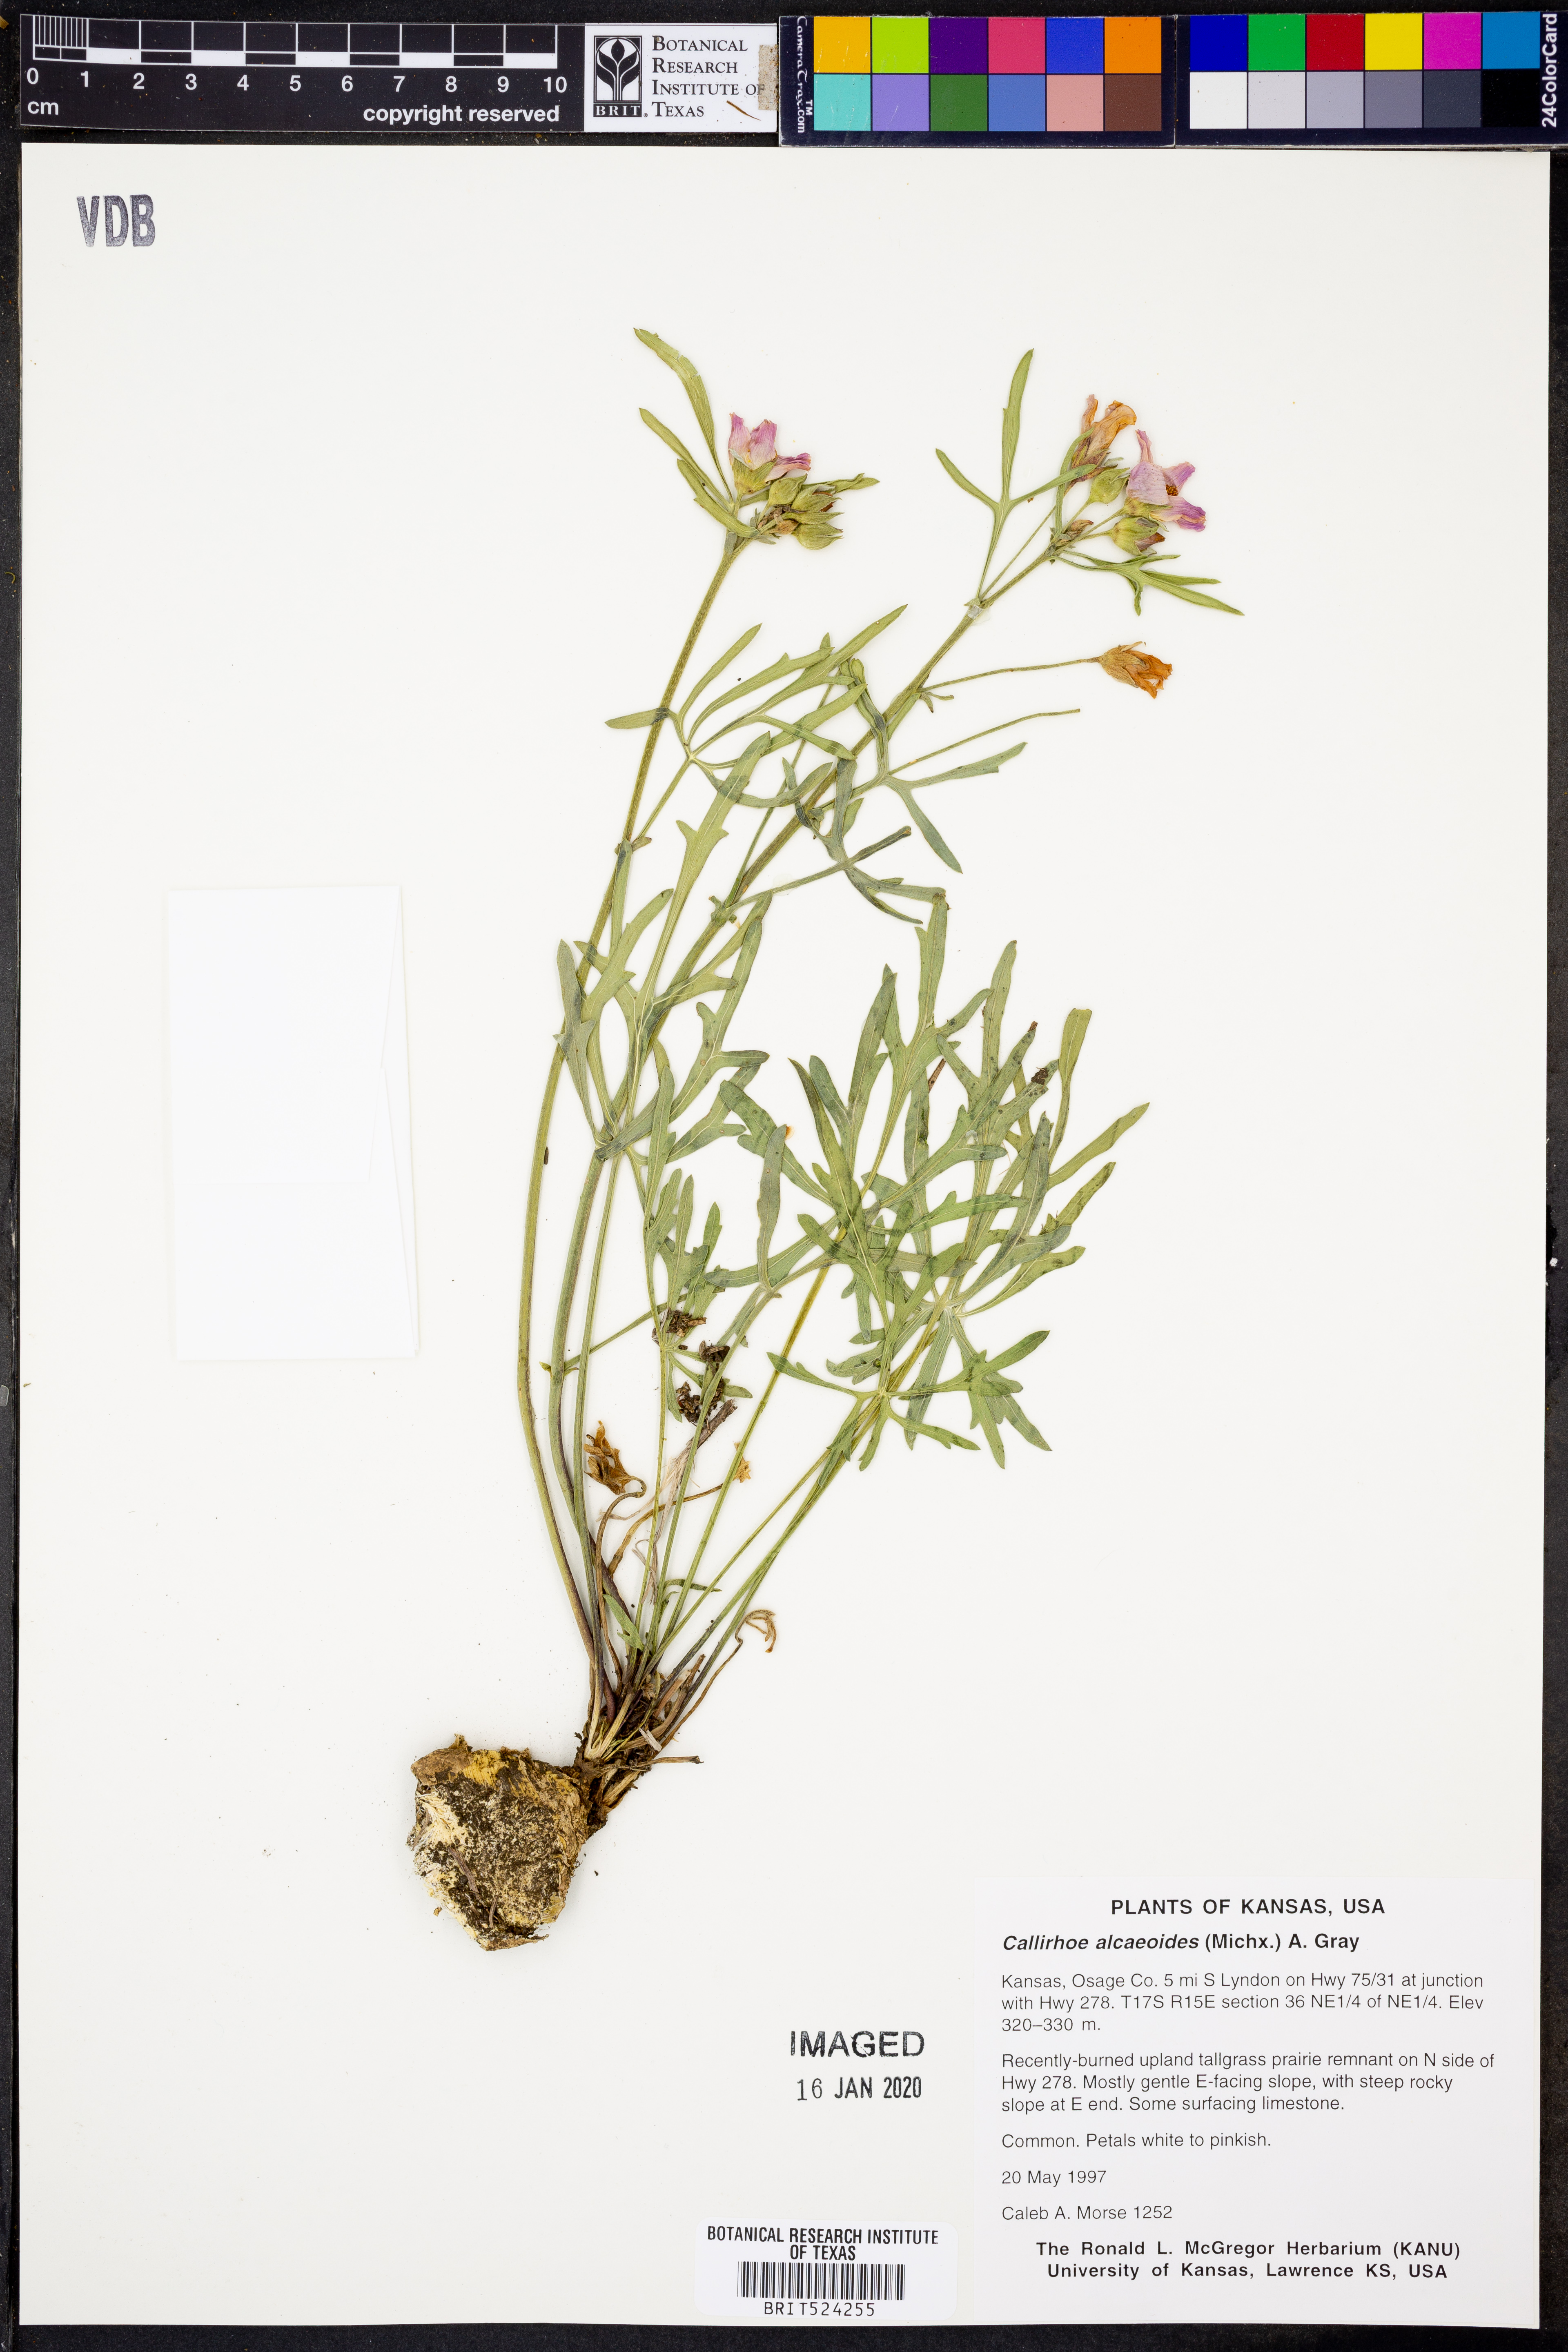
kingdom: Plantae
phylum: Tracheophyta
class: Magnoliopsida
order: Malvales
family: Malvaceae
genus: Callirhoe
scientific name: Callirhoe alcaeoides
